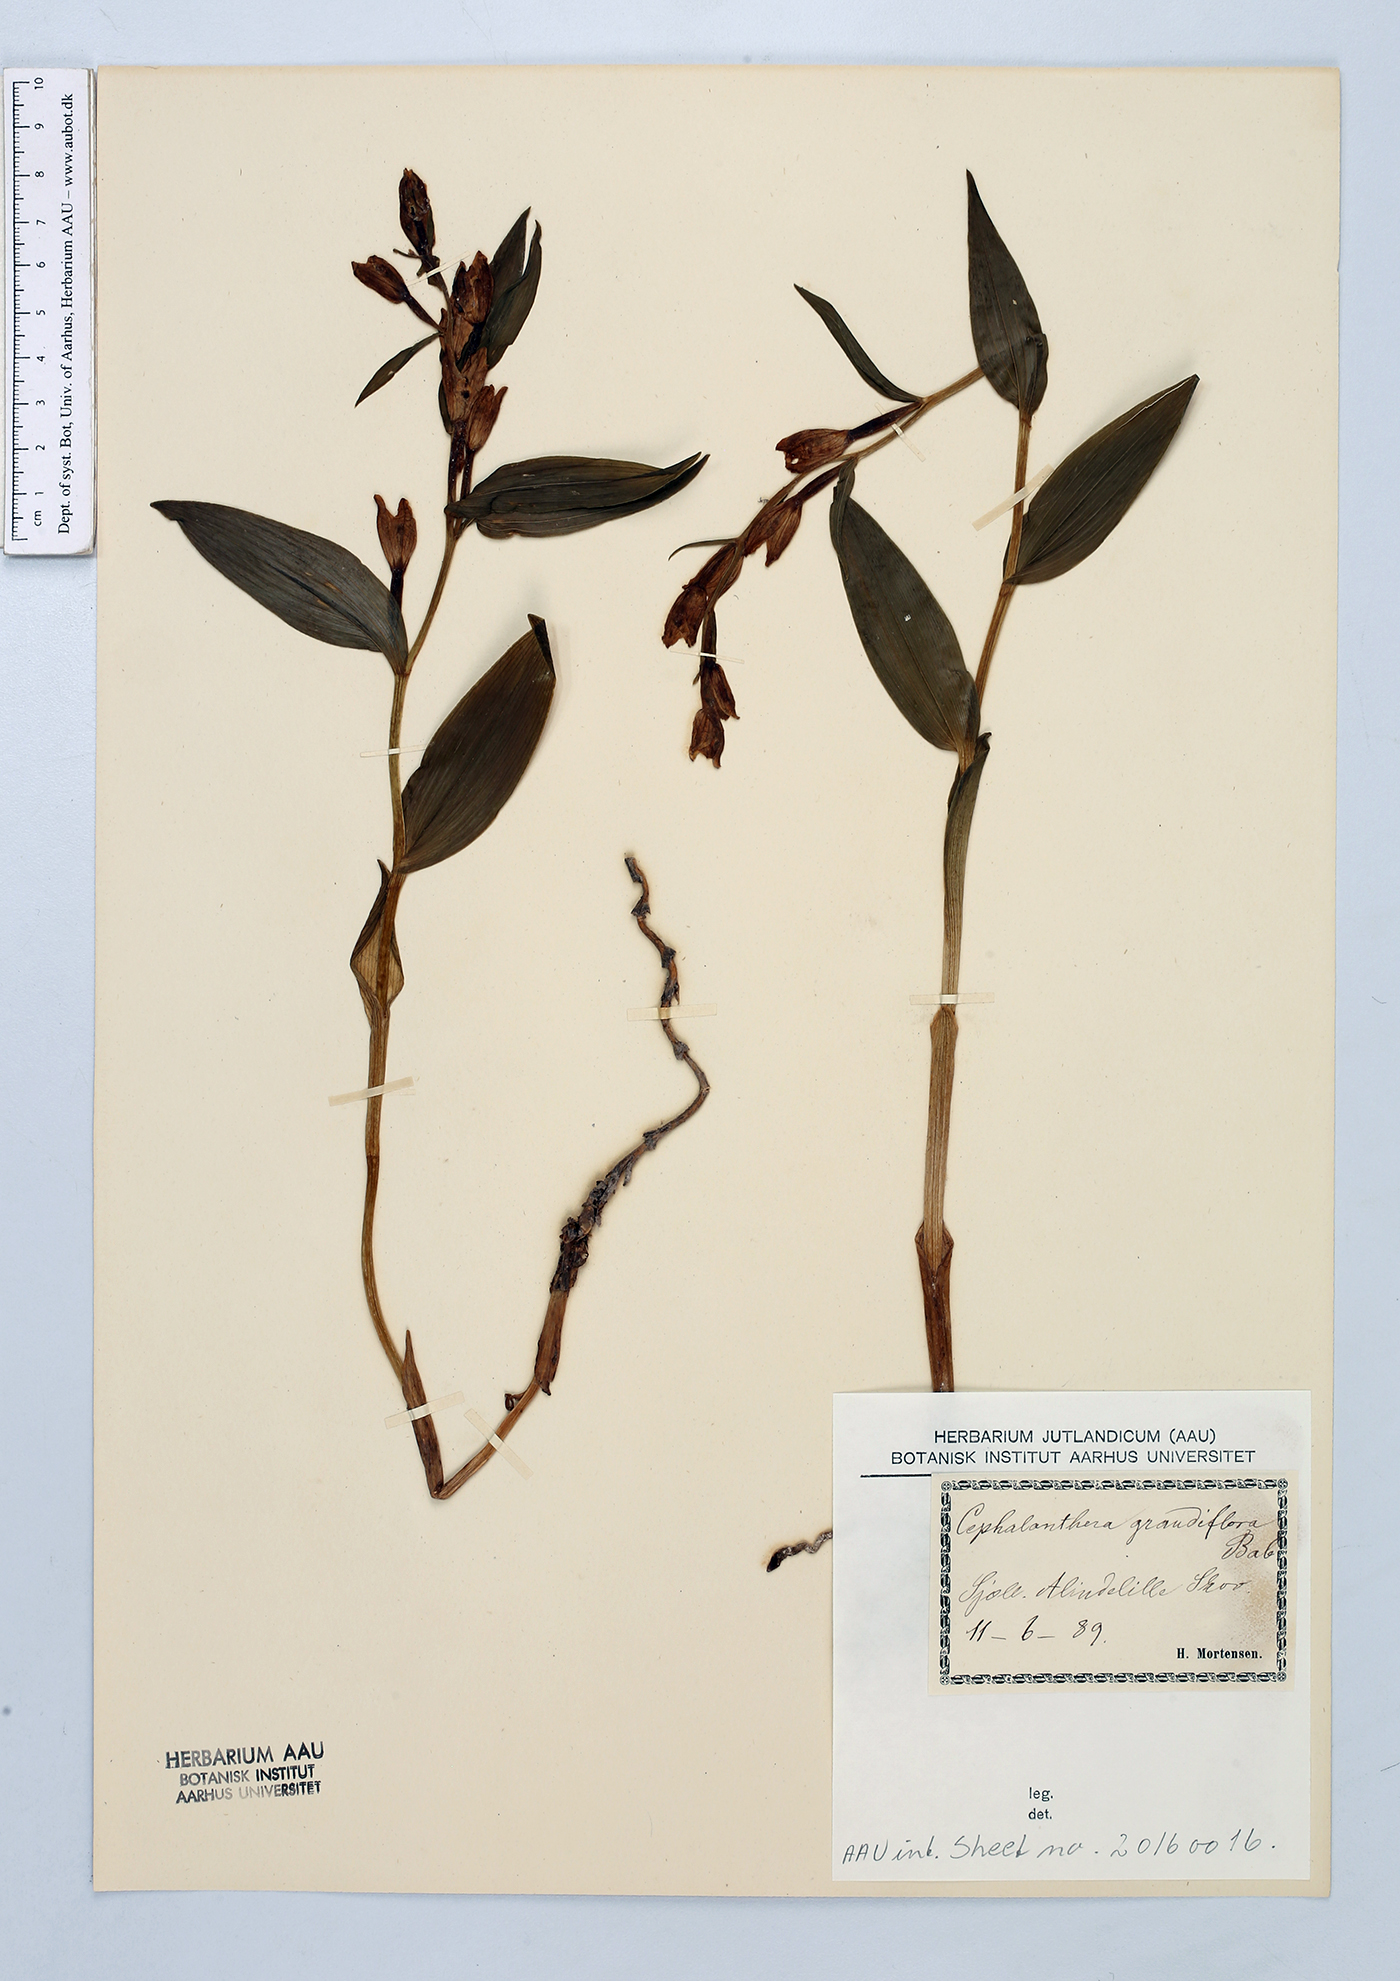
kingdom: Plantae
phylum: Tracheophyta
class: Liliopsida
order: Asparagales
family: Orchidaceae
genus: Cephalanthera
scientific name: Cephalanthera damasonium
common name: White helleborine
